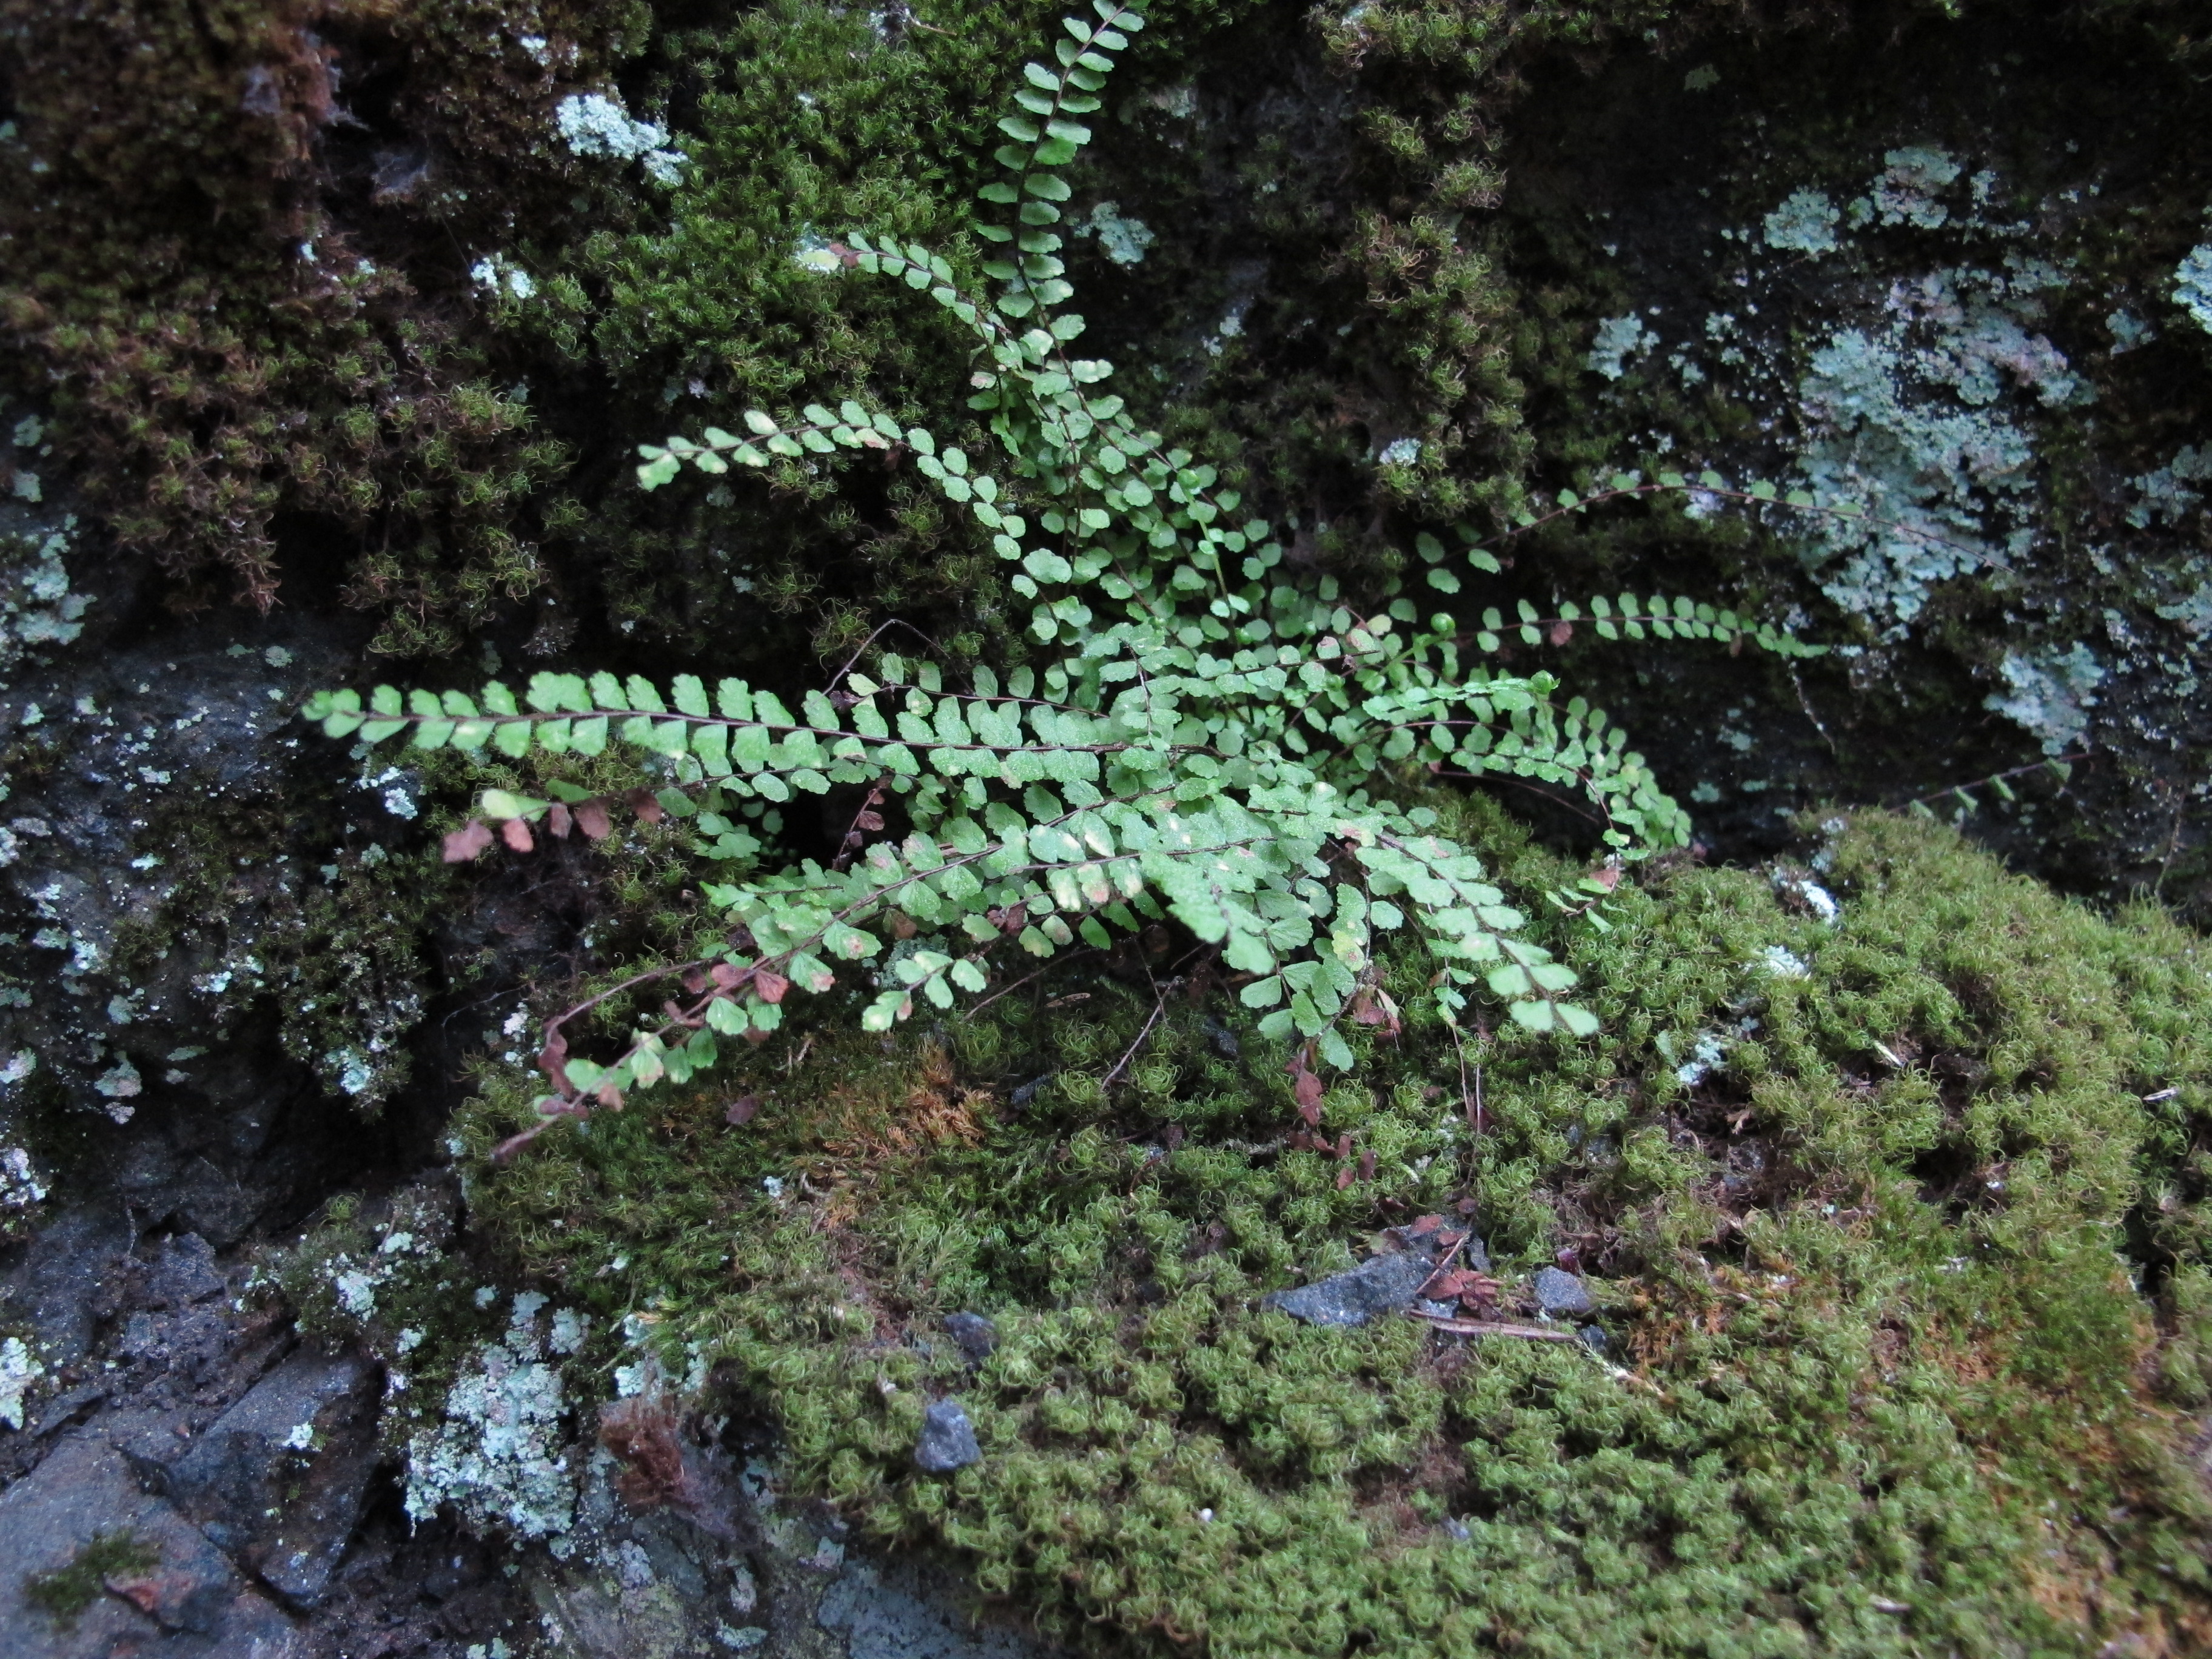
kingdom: Plantae
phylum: Tracheophyta
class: Polypodiopsida
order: Polypodiales
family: Aspleniaceae
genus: Asplenium
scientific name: Asplenium trichomanes
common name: Maidenhair spleenwort
